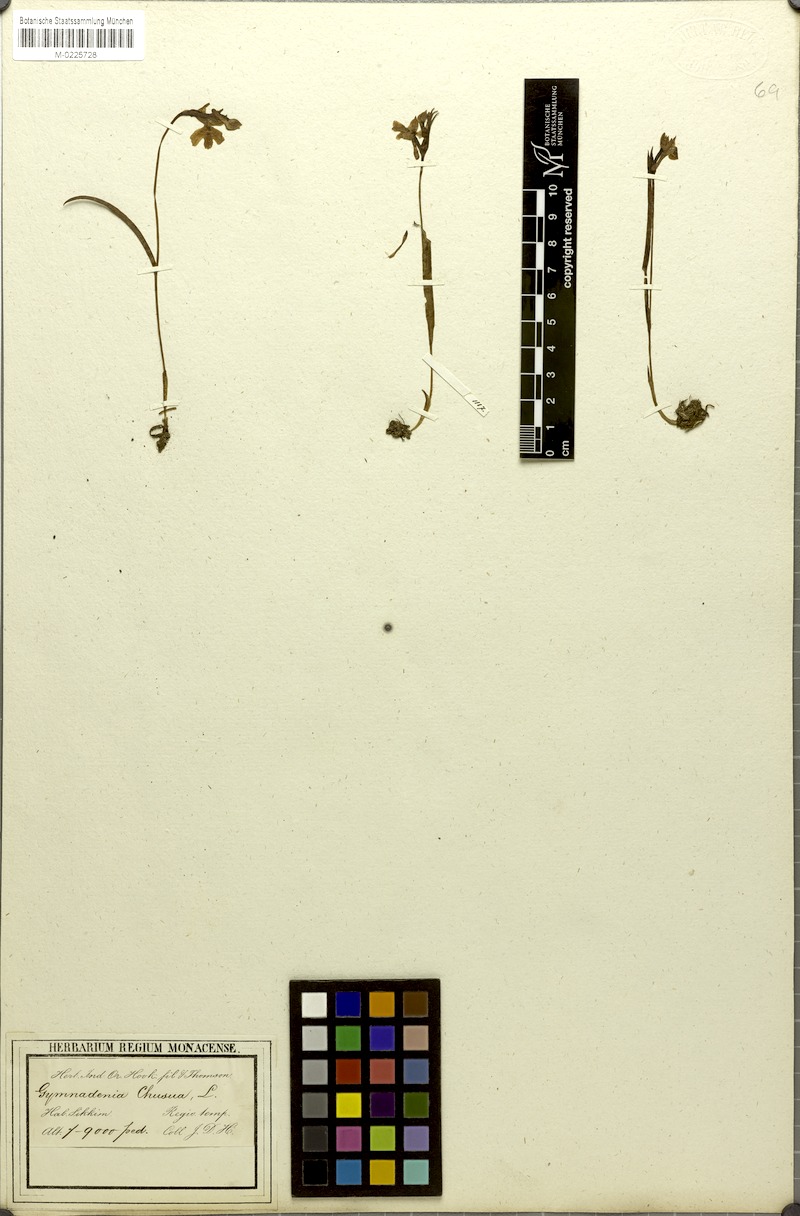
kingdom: Plantae
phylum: Tracheophyta
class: Liliopsida
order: Asparagales
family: Orchidaceae
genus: Hemipilia
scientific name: Hemipilia chusua
